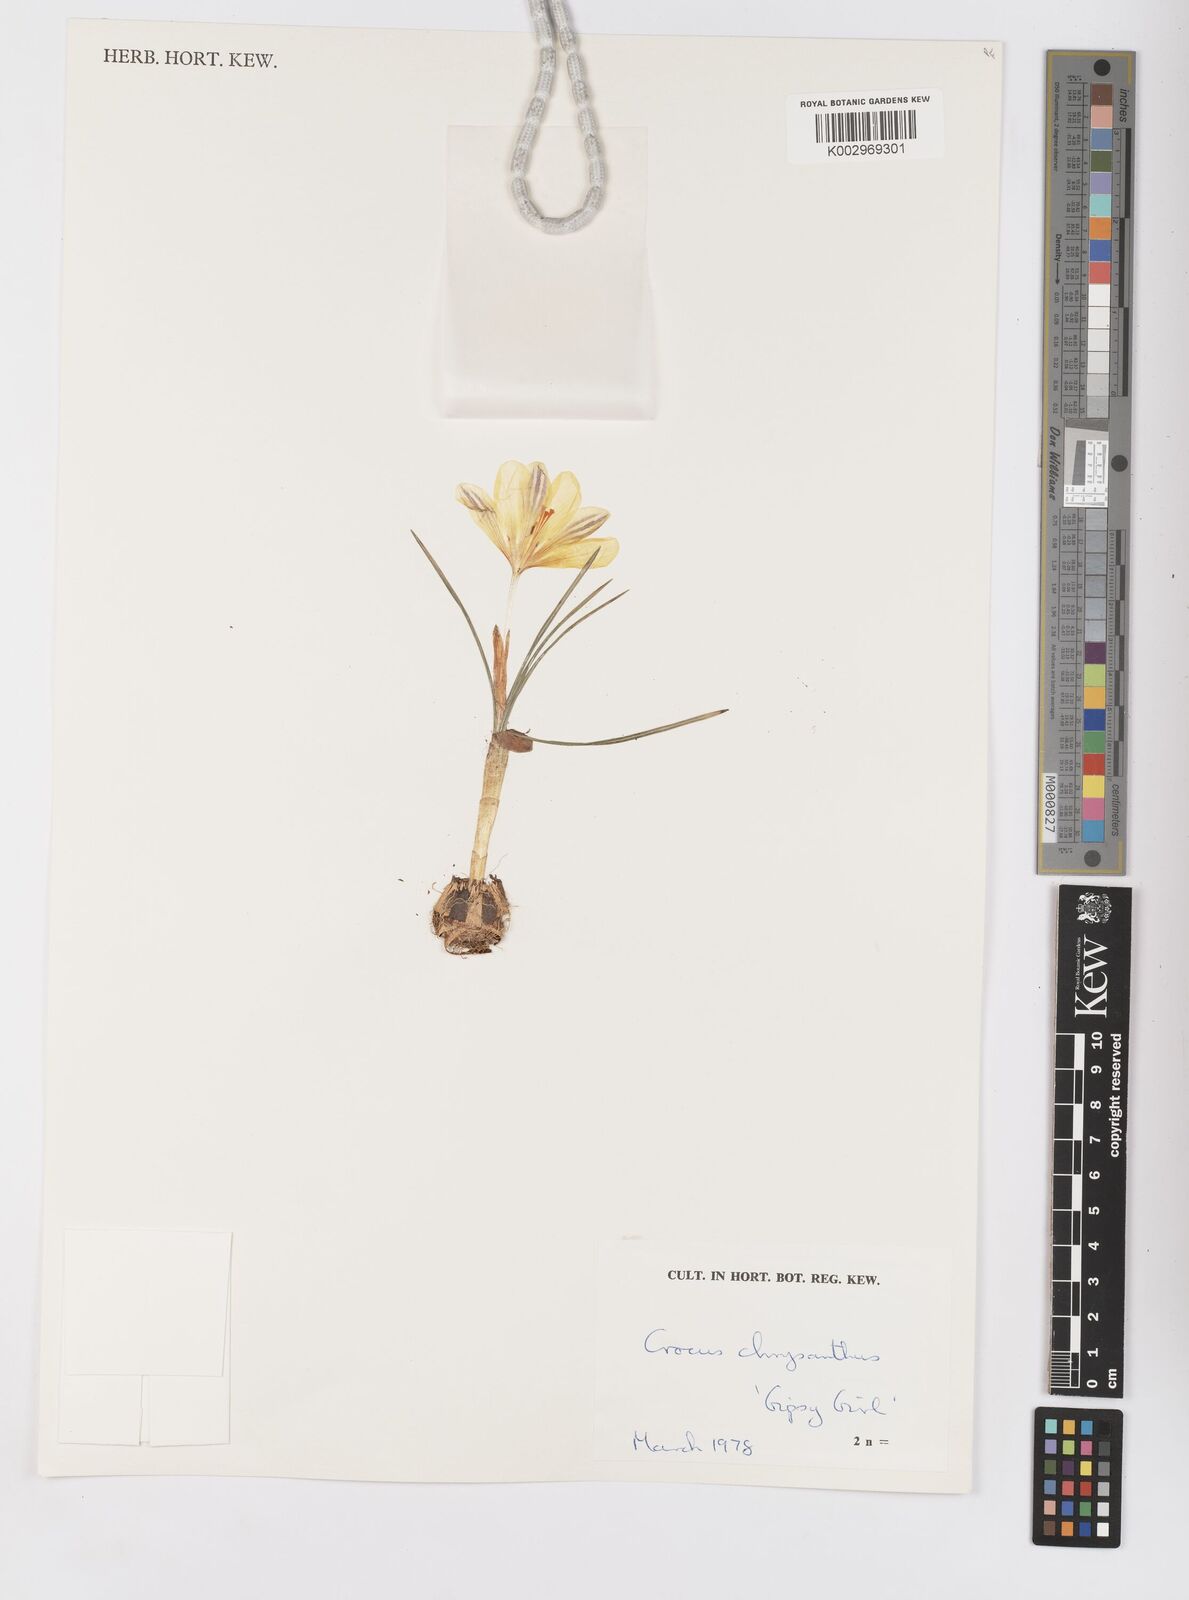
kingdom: Plantae
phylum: Tracheophyta
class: Liliopsida
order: Asparagales
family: Iridaceae
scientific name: Iridaceae
